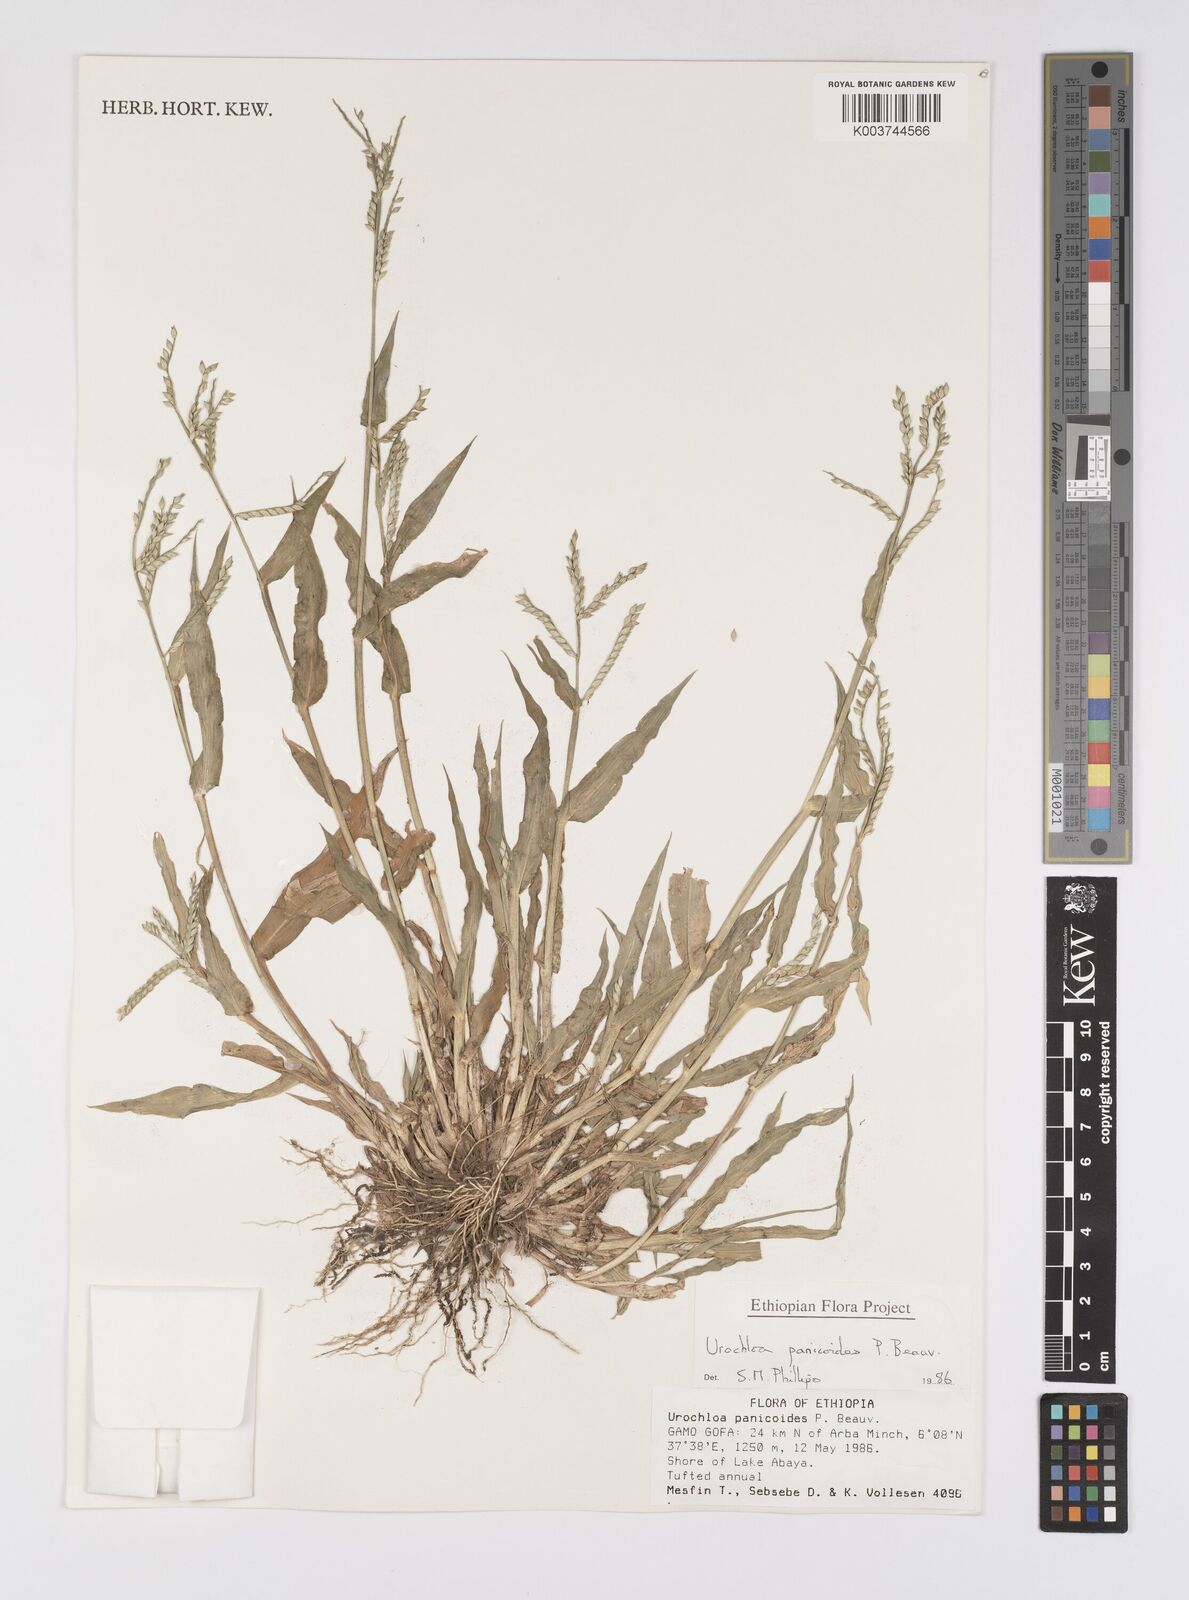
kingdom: Plantae
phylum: Tracheophyta
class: Liliopsida
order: Poales
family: Poaceae
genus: Urochloa
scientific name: Urochloa panicoides
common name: Sharp-flowered signal-grass
